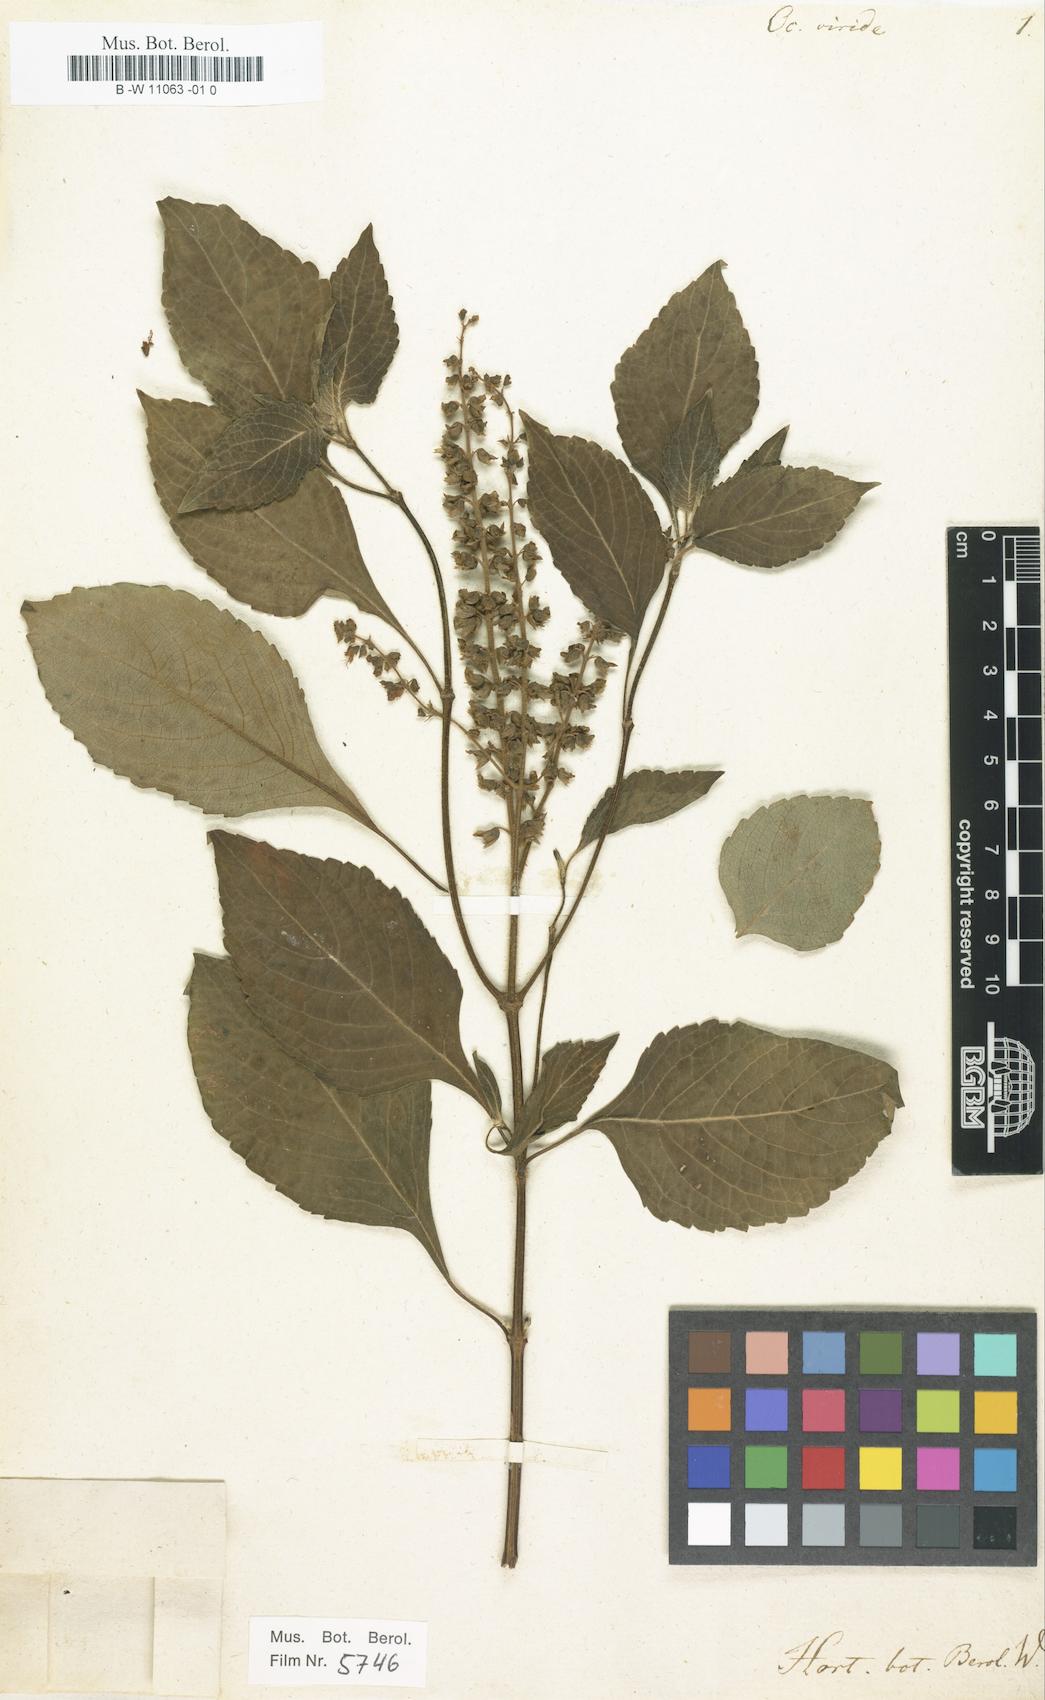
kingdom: Plantae
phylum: Tracheophyta
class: Magnoliopsida
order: Lamiales
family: Lamiaceae
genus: Ocimum
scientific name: Ocimum gratissimum
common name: African basil
